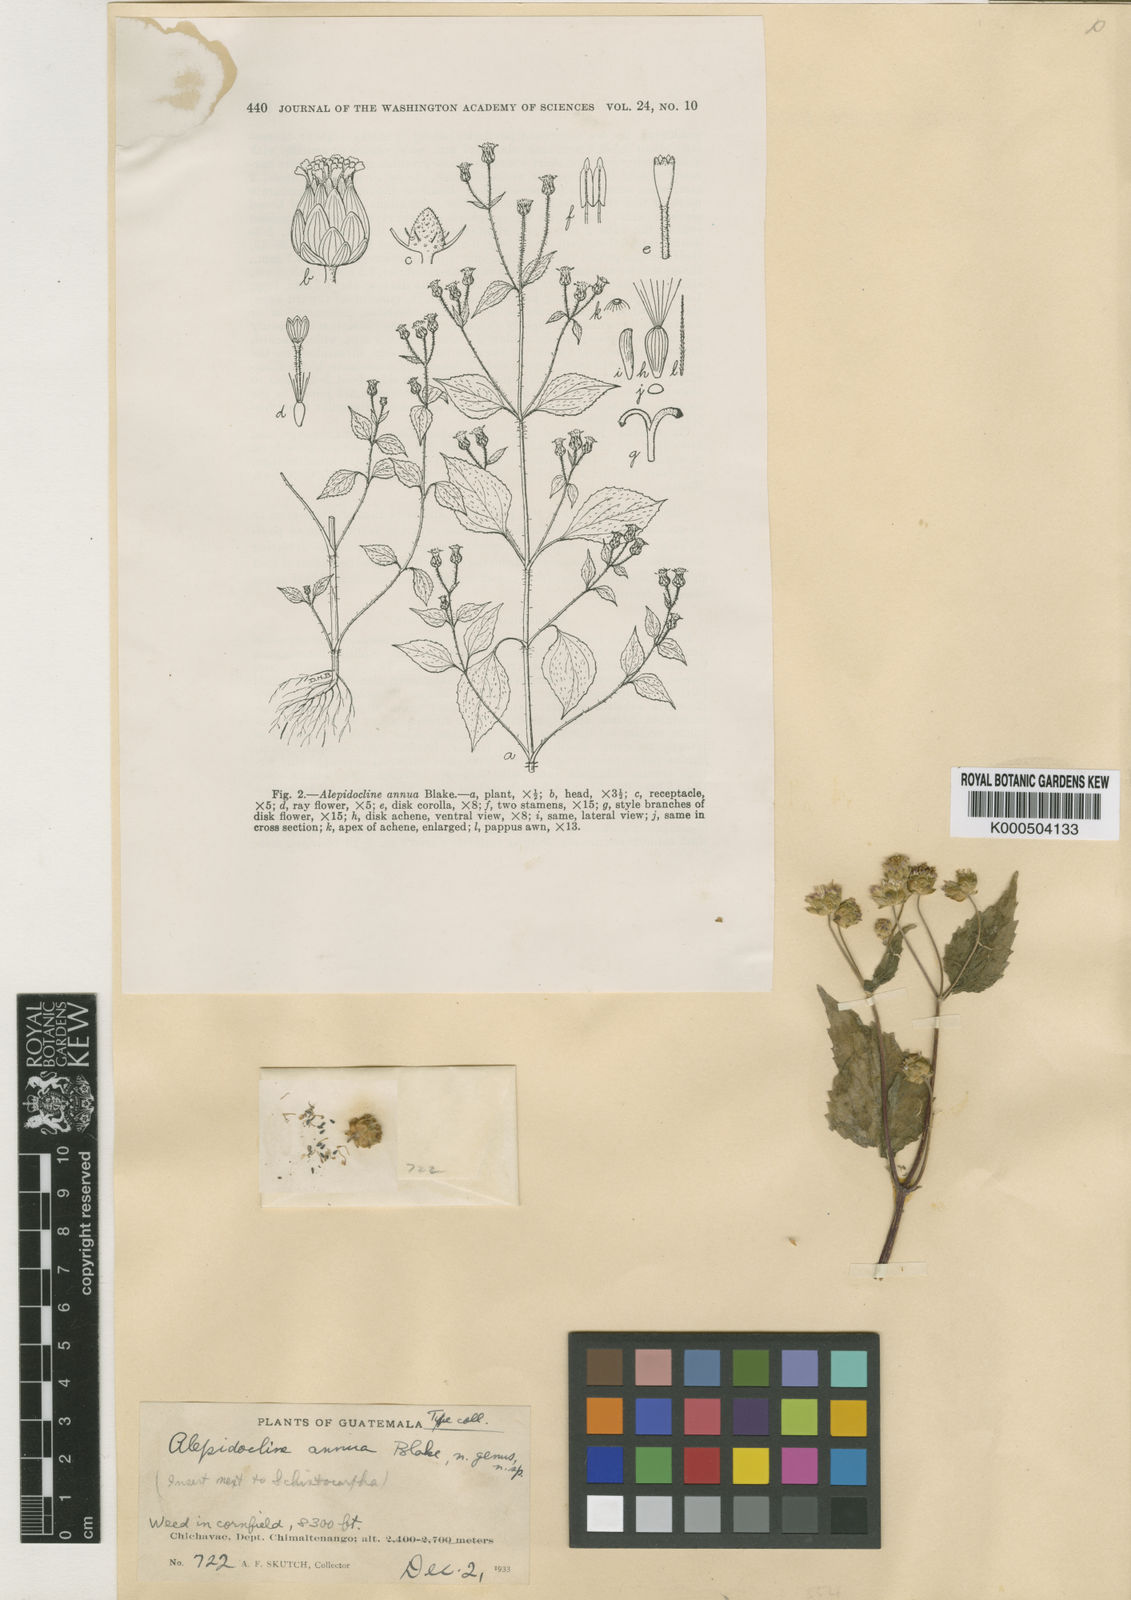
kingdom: Plantae
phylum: Tracheophyta
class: Magnoliopsida
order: Asterales
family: Asteraceae
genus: Alepidocline
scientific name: Alepidocline annua
